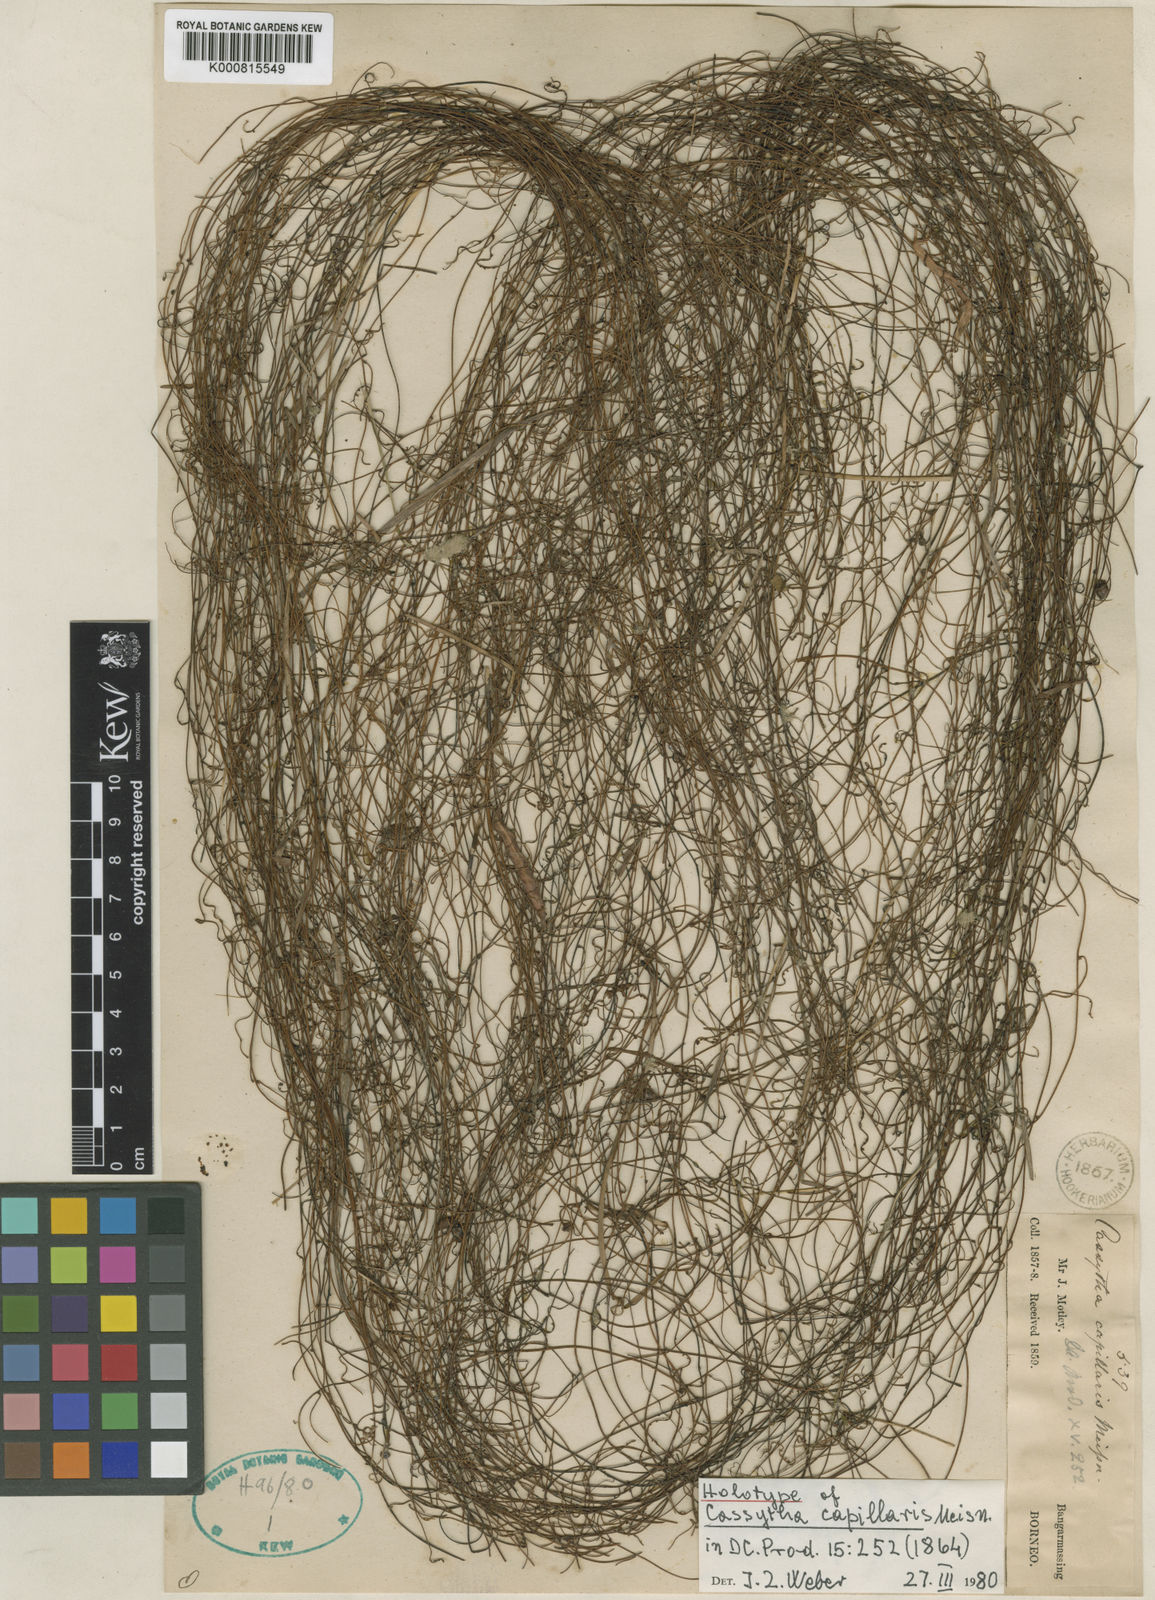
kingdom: Plantae
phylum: Tracheophyta
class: Magnoliopsida
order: Laurales
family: Lauraceae
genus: Cassytha
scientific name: Cassytha capillaris
